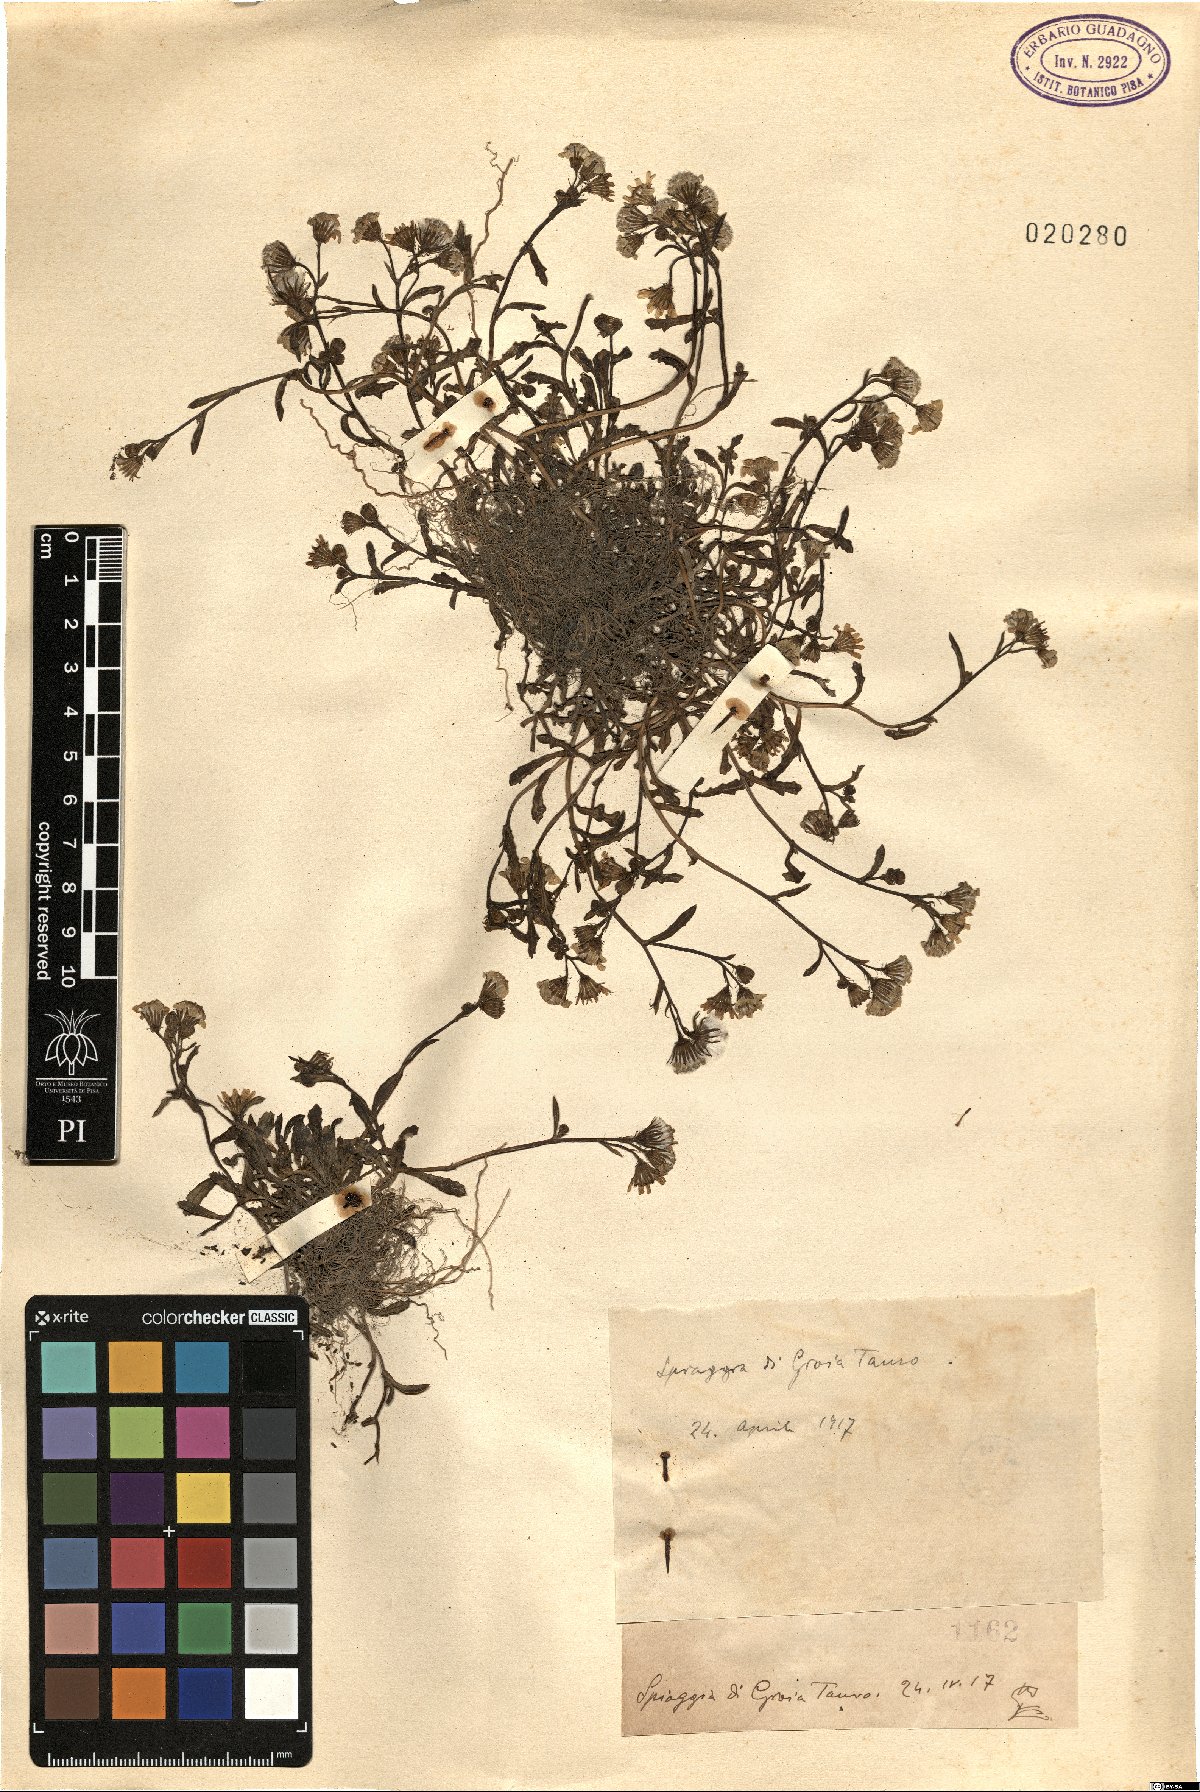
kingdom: Plantae
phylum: Tracheophyta
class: Magnoliopsida
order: Asterales
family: Asteraceae
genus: Senecio
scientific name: Senecio
